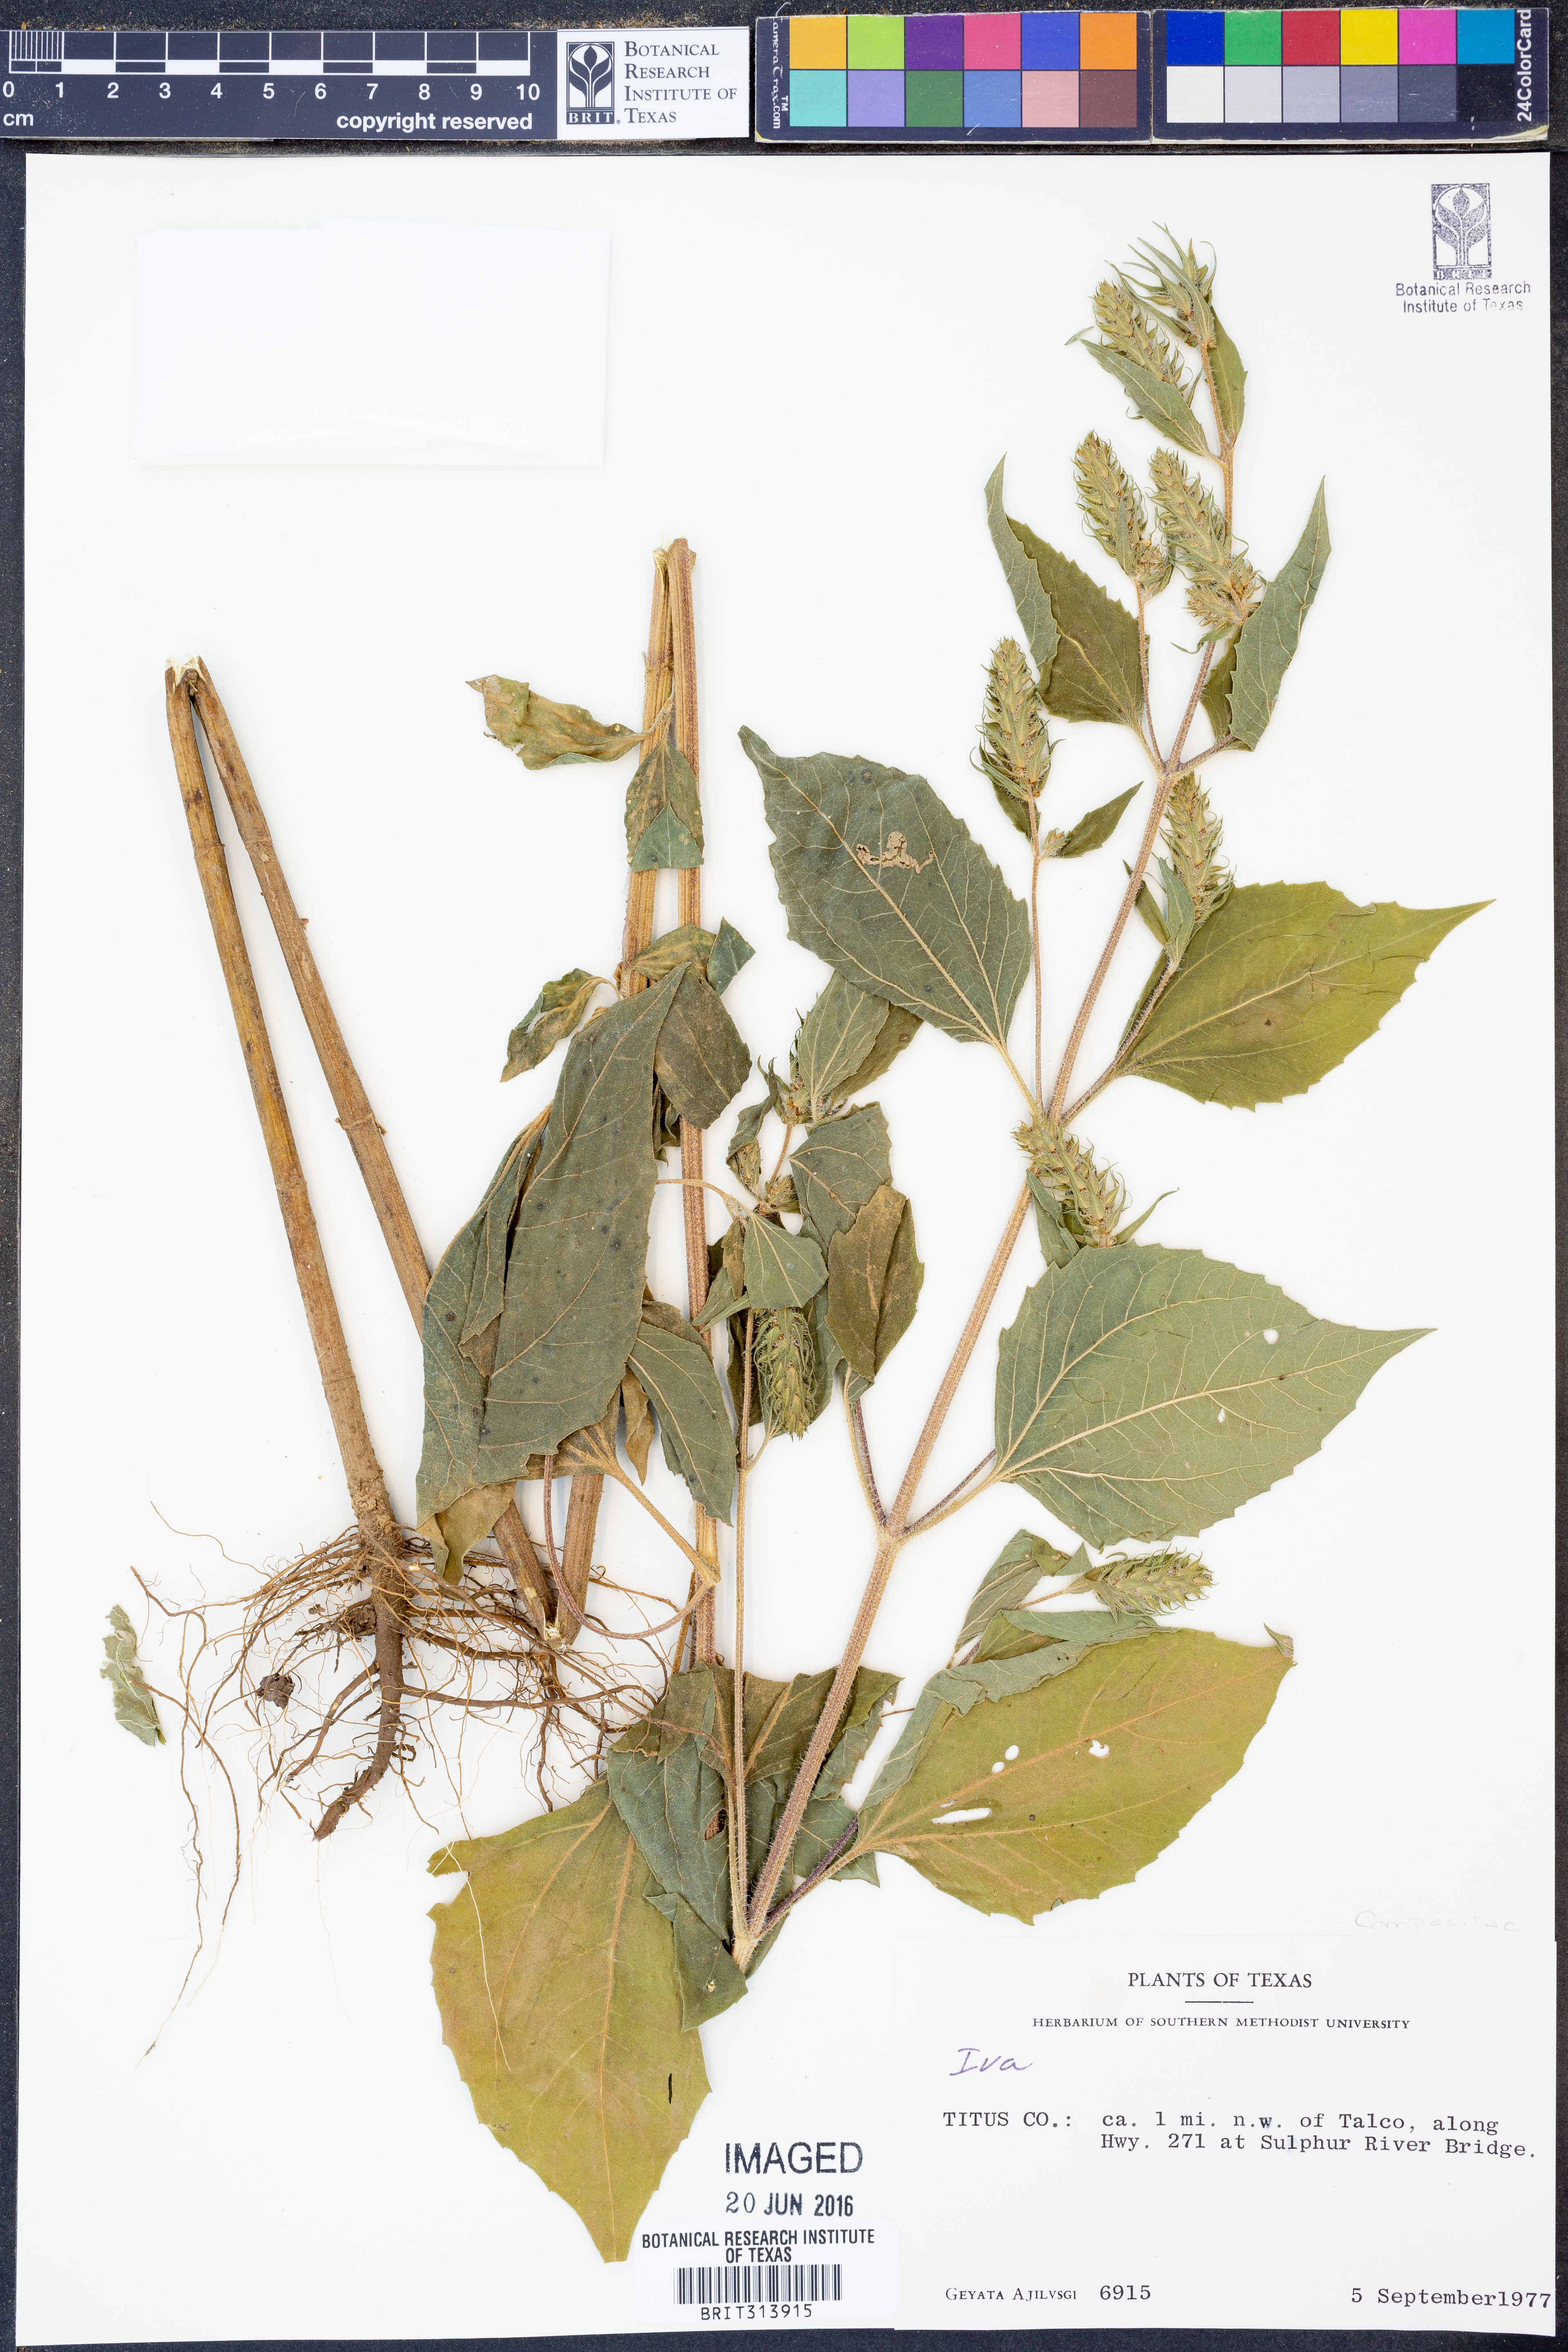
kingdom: Plantae
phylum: Tracheophyta
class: Magnoliopsida
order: Asterales
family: Asteraceae
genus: Iva
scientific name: Iva
